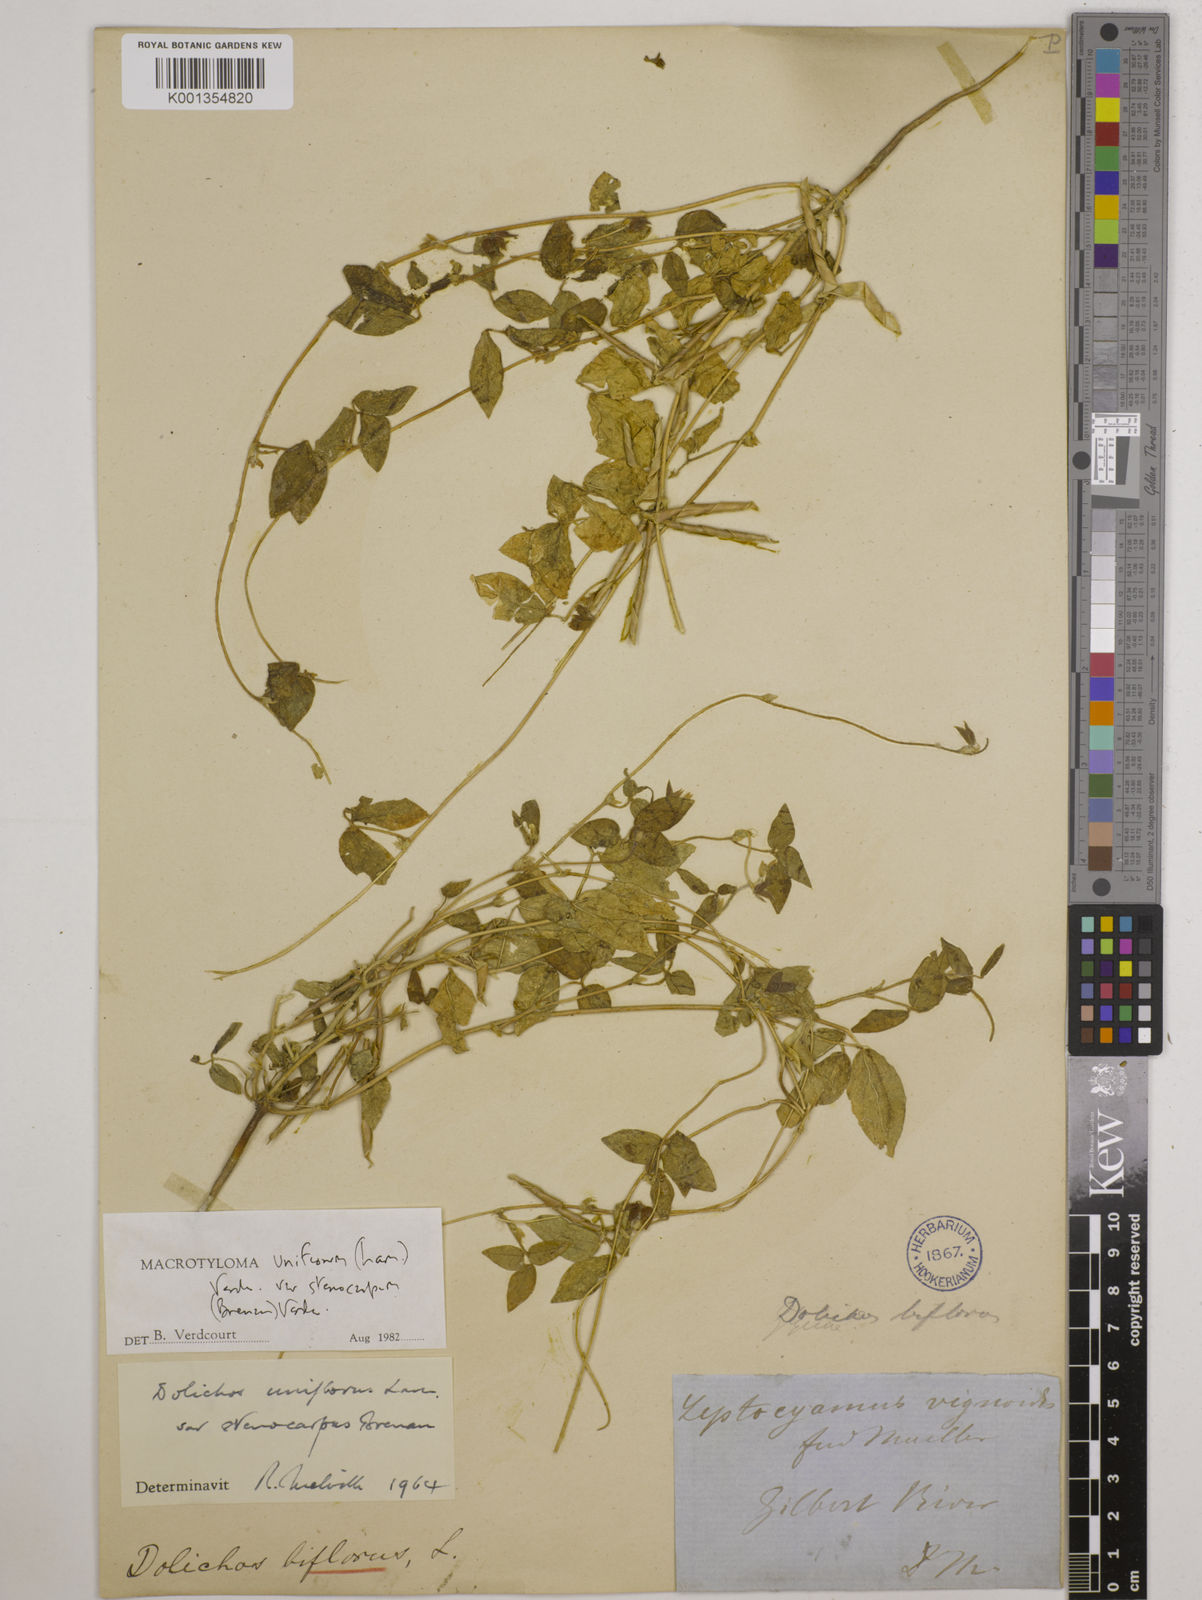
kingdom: Plantae
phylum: Tracheophyta
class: Magnoliopsida
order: Fabales
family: Fabaceae
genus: Macrotyloma
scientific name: Macrotyloma uniflorum
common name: Horse gram
